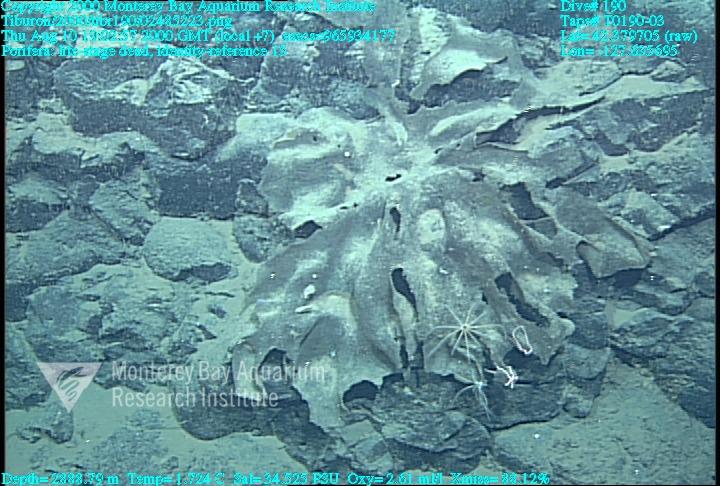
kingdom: Animalia
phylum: Porifera
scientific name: Porifera
